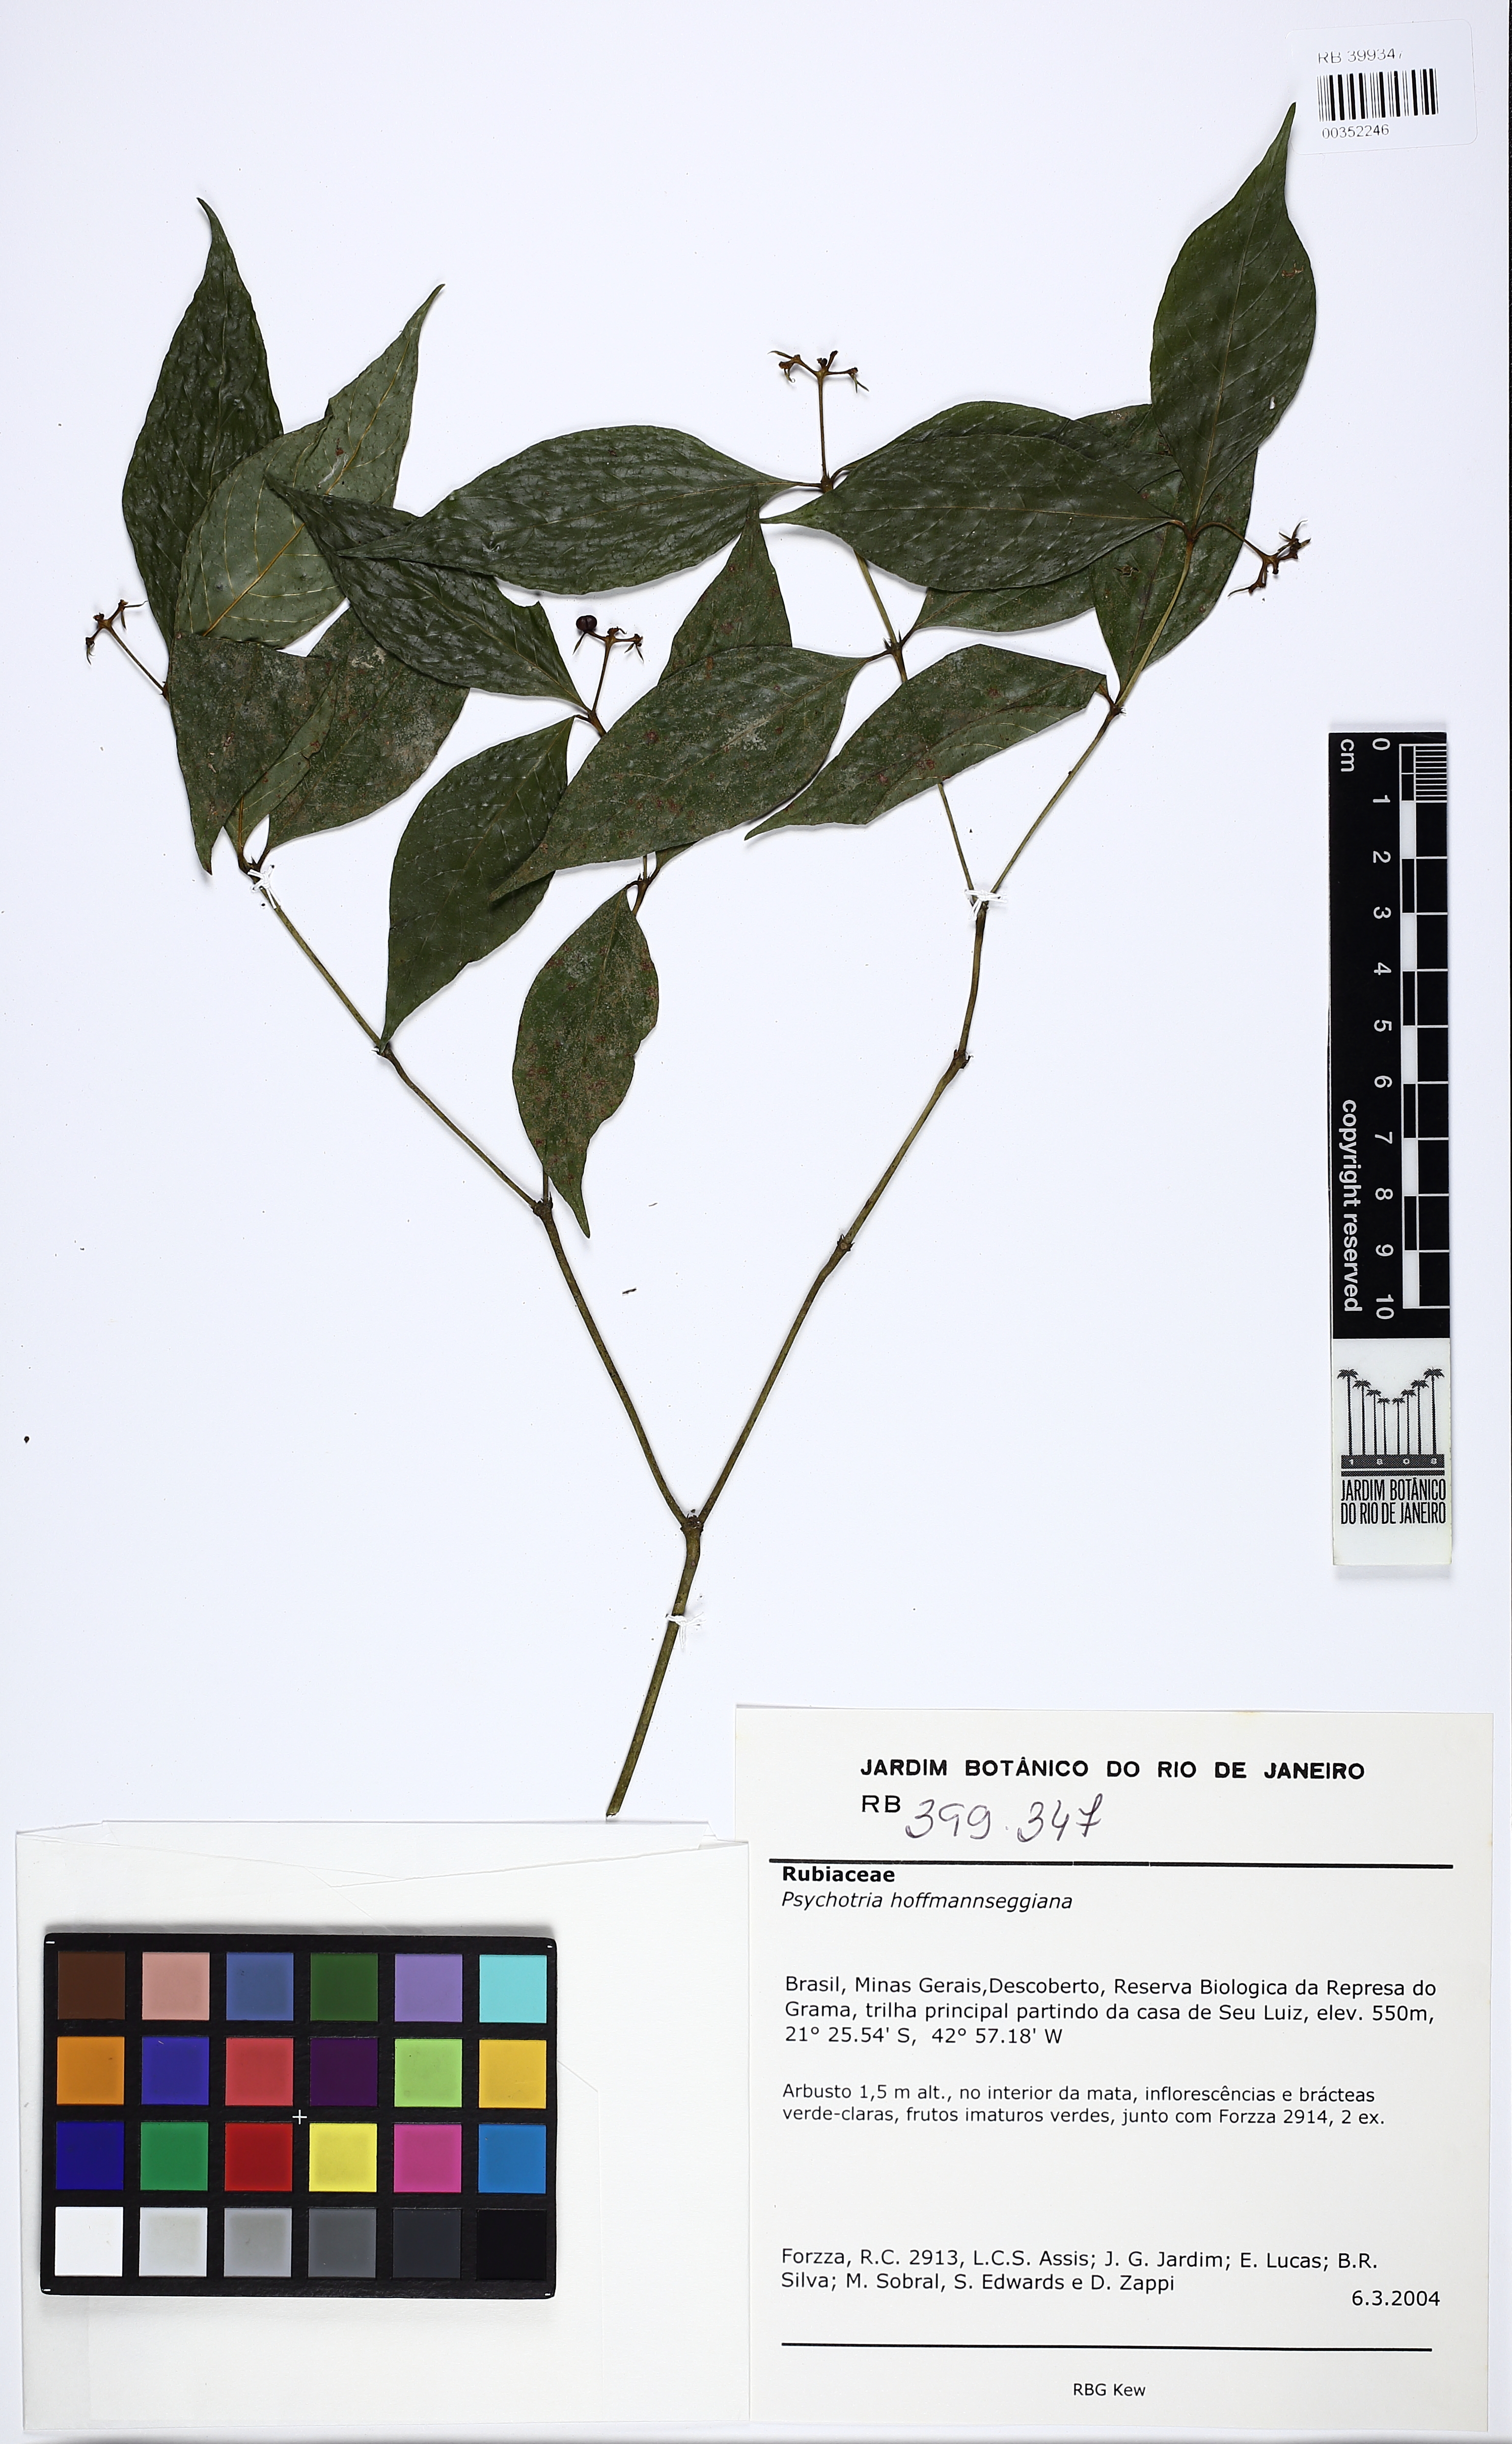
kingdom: Plantae
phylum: Tracheophyta
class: Magnoliopsida
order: Gentianales
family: Rubiaceae
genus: Palicourea
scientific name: Palicourea tenerior
